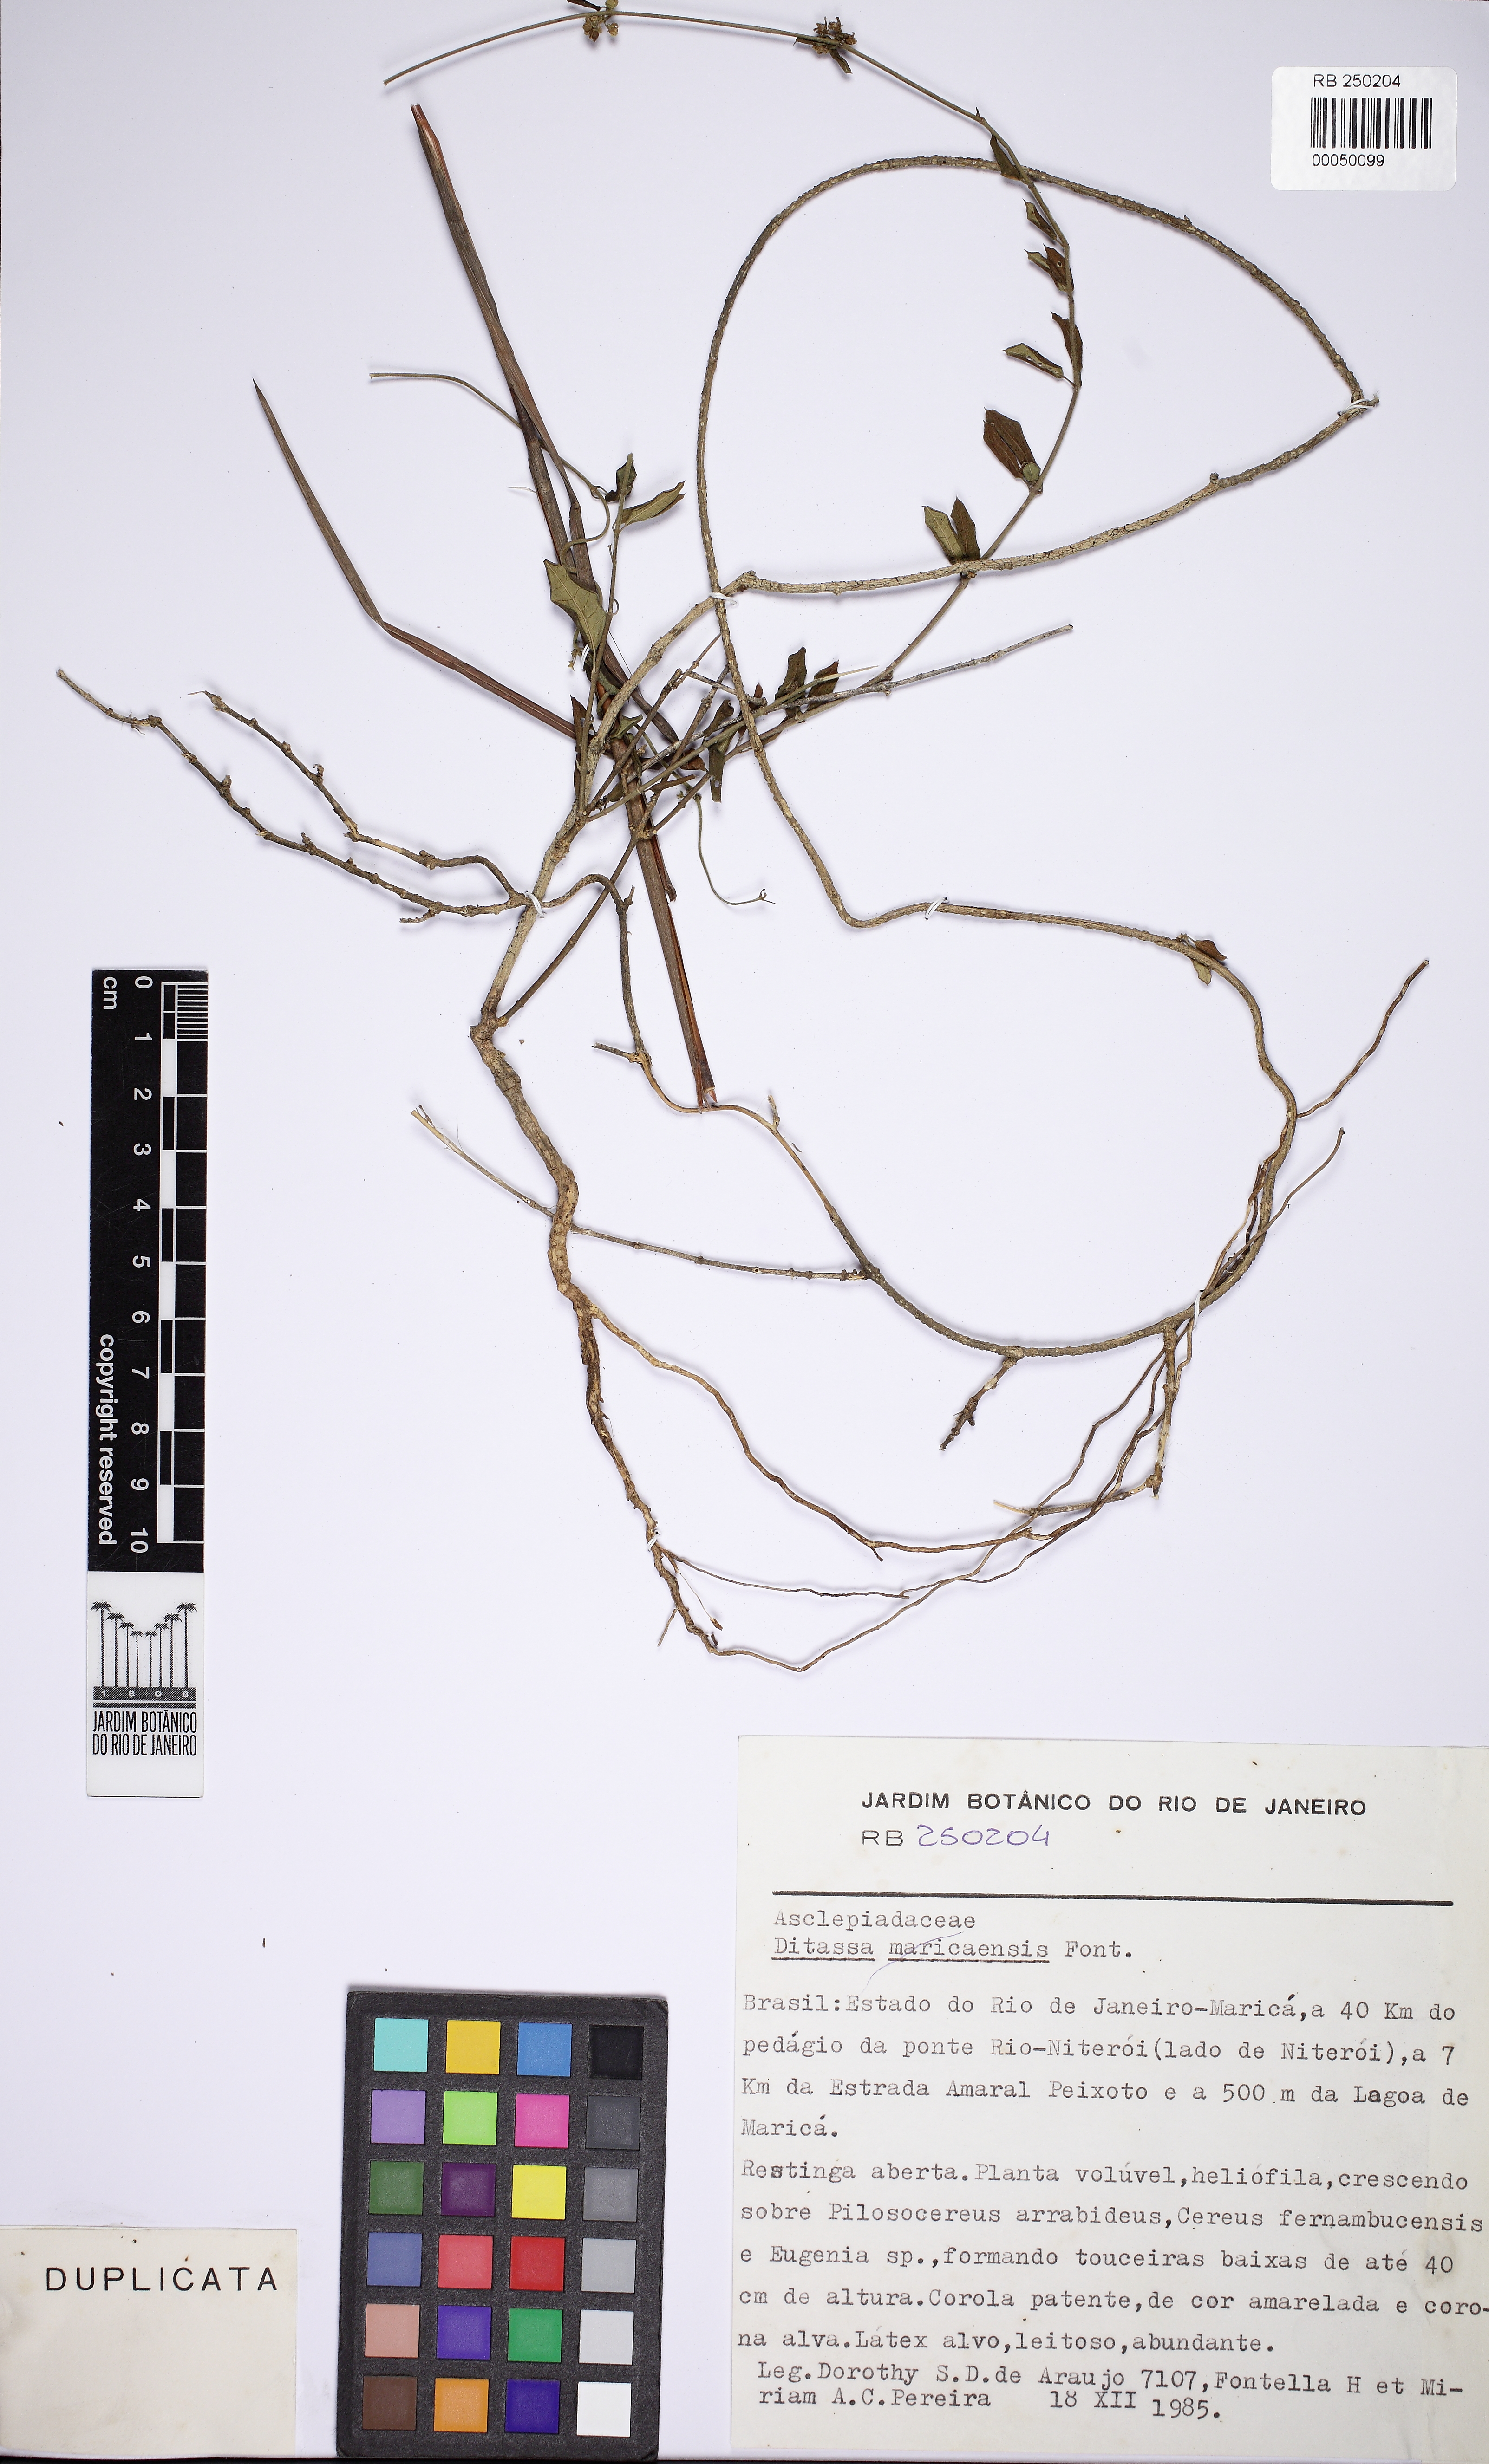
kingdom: Plantae
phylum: Tracheophyta
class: Magnoliopsida
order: Gentianales
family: Apocynaceae
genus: Ditassa
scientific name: Ditassa maricaensis
